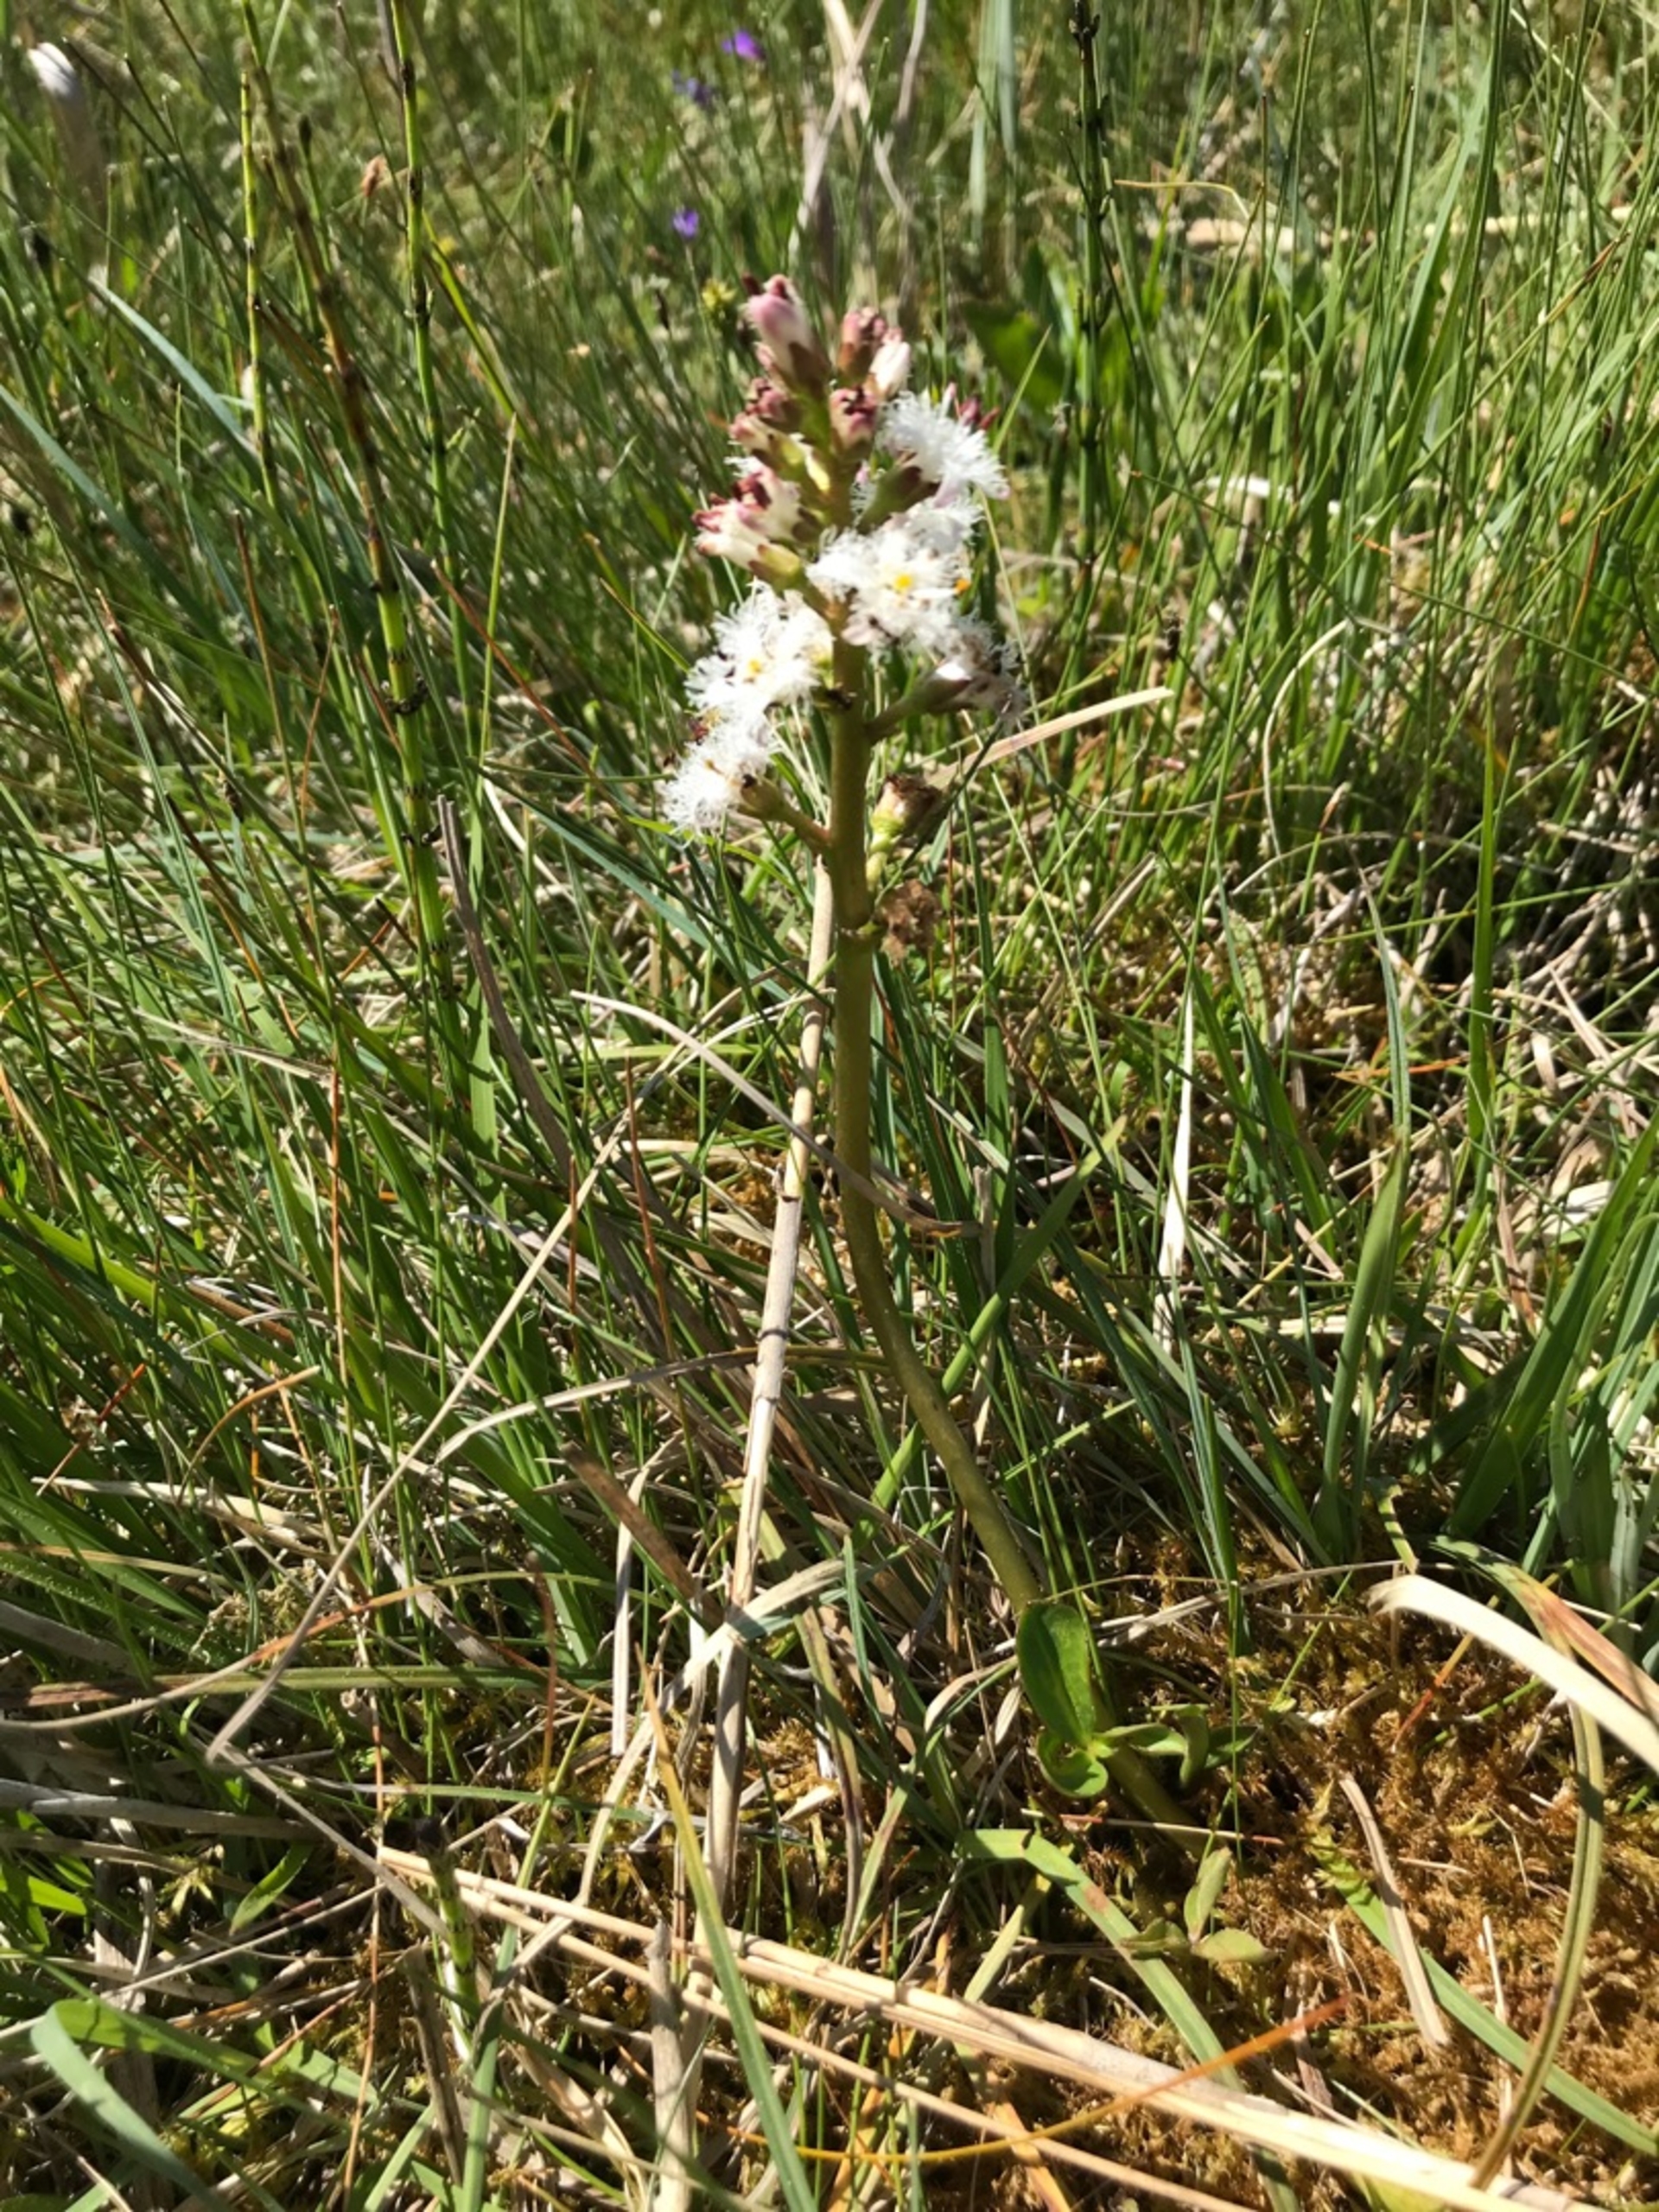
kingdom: Plantae
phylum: Tracheophyta
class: Magnoliopsida
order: Asterales
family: Menyanthaceae
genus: Menyanthes
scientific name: Menyanthes trifoliata
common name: Bukkeblad
